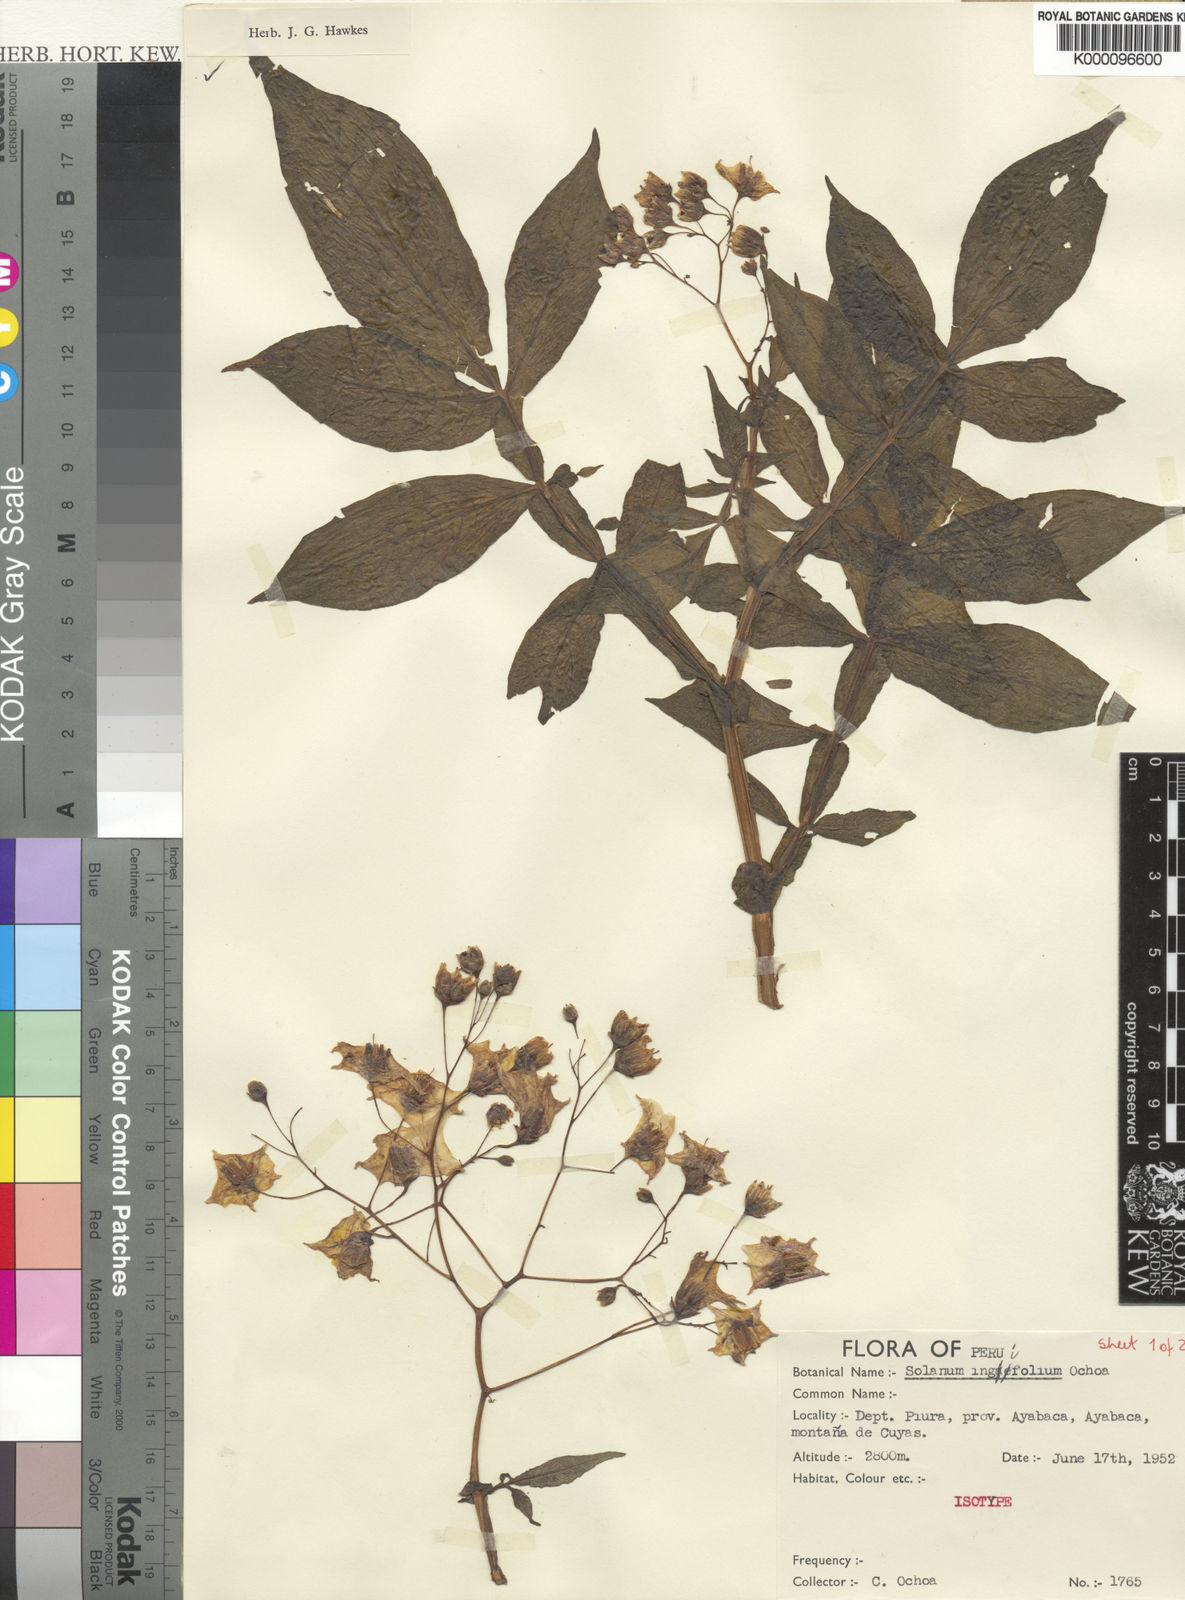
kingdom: Plantae
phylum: Tracheophyta
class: Magnoliopsida
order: Solanales
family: Solanaceae
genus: Solanum
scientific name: Solanum raquialatum
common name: Papa de wisco
